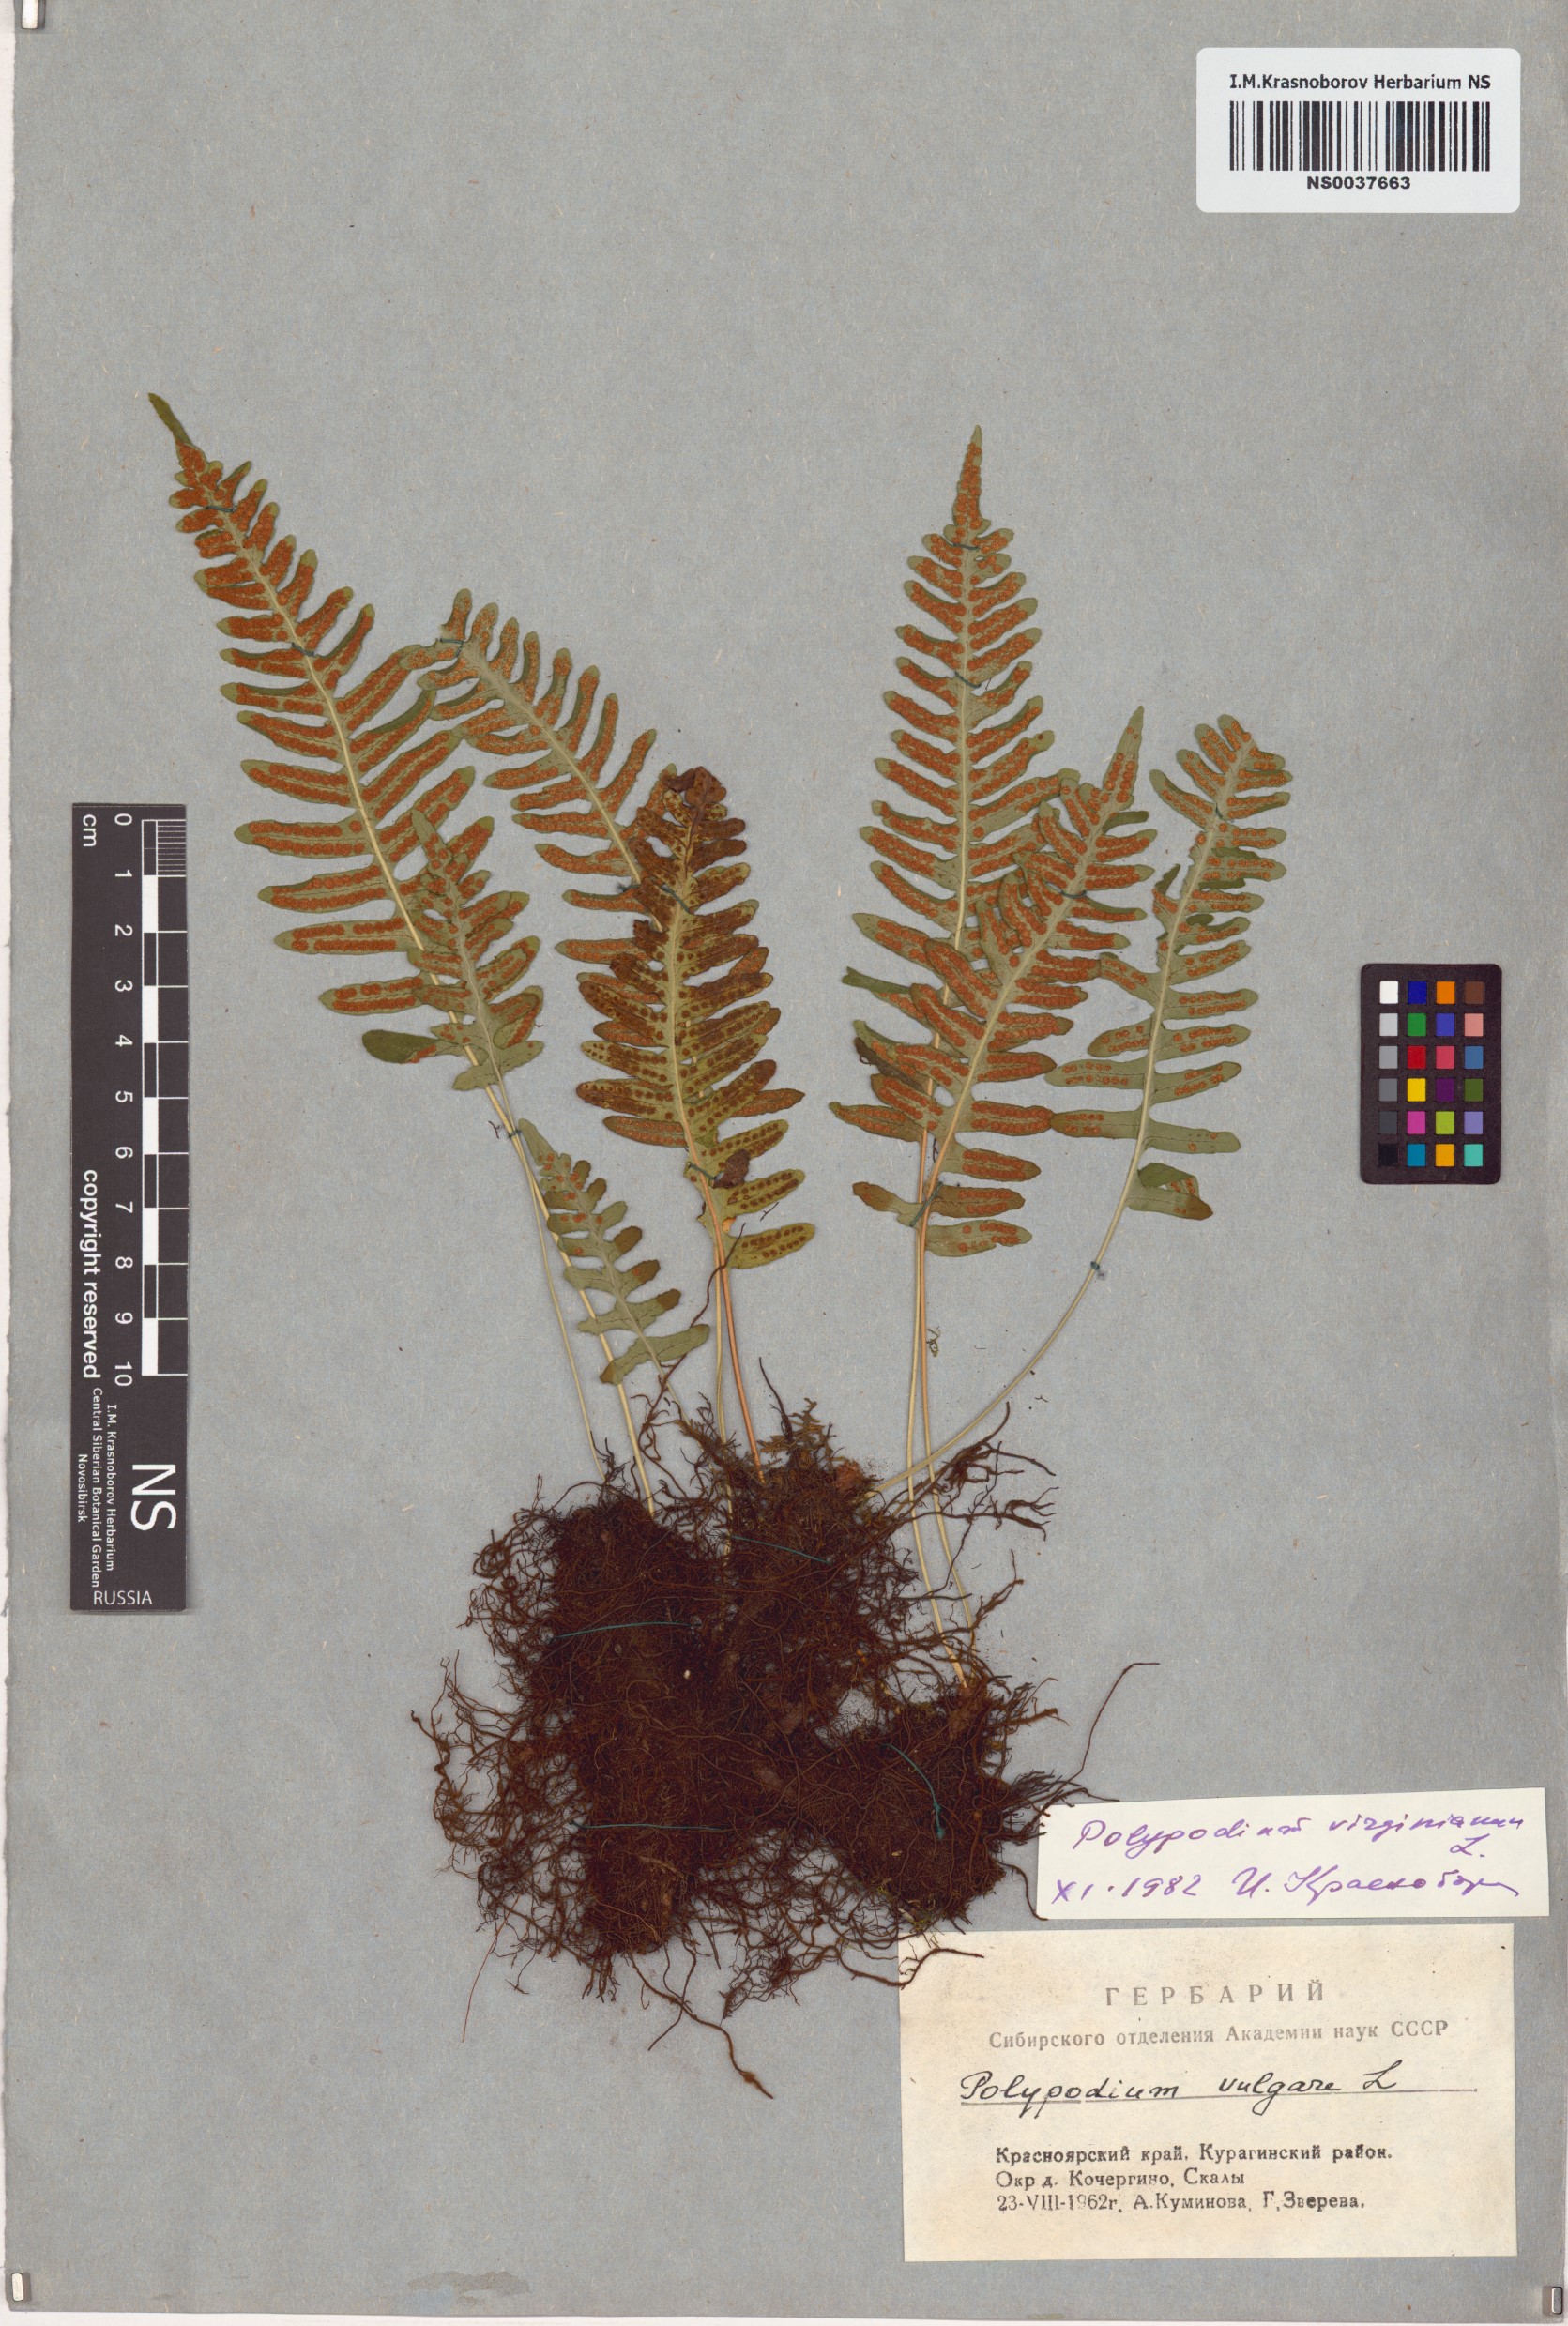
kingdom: Plantae
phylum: Tracheophyta
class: Polypodiopsida
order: Polypodiales
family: Polypodiaceae
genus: Polypodium
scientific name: Polypodium virginianum
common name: American wall fern
